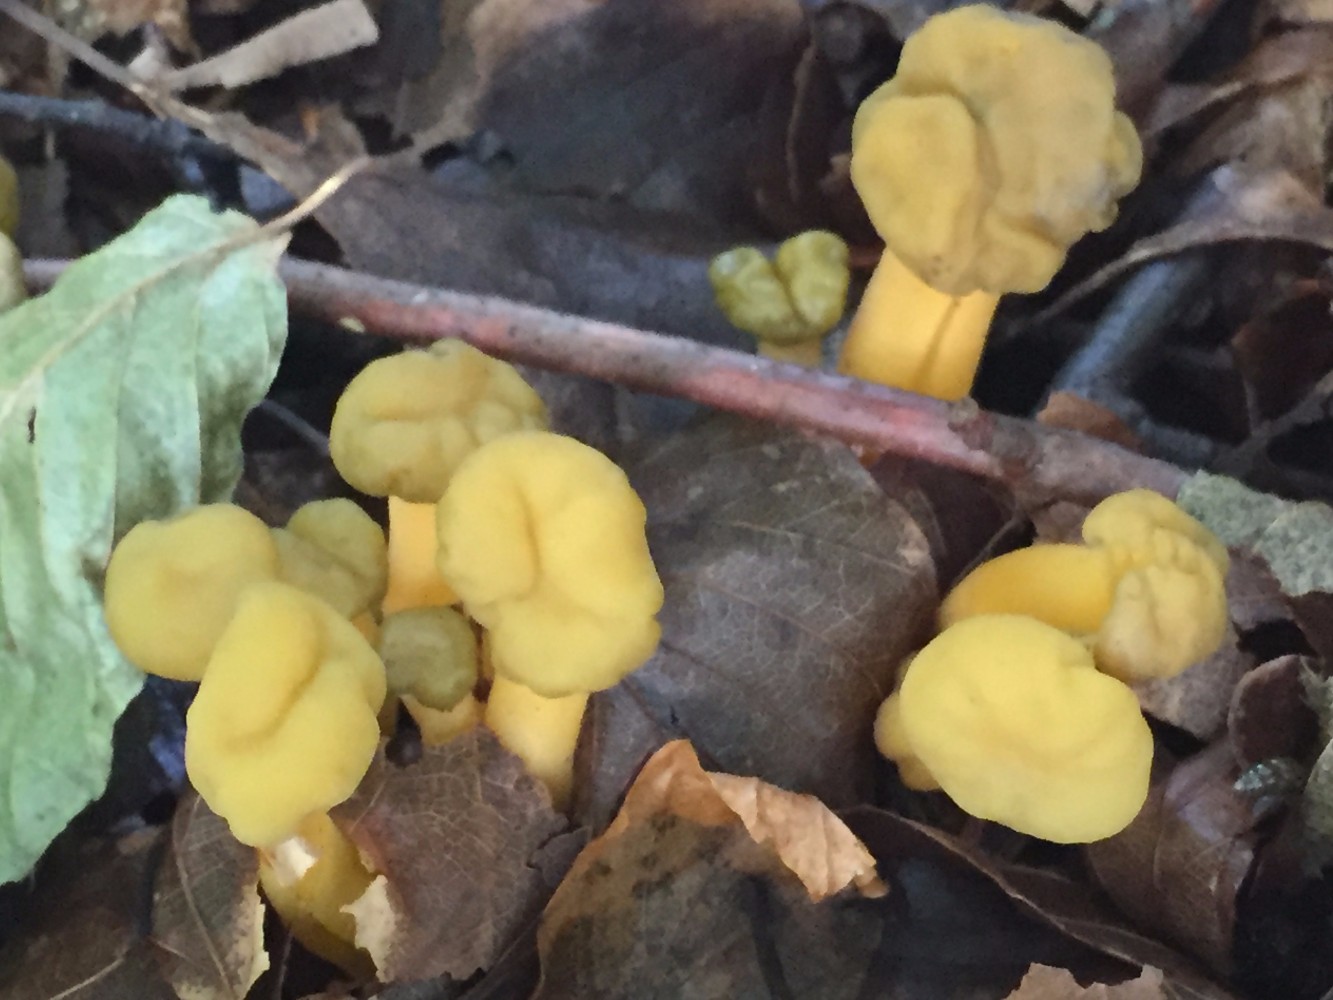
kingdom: Fungi
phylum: Ascomycota
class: Leotiomycetes
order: Leotiales
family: Leotiaceae
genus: Leotia
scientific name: Leotia lubrica
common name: ravsvamp
